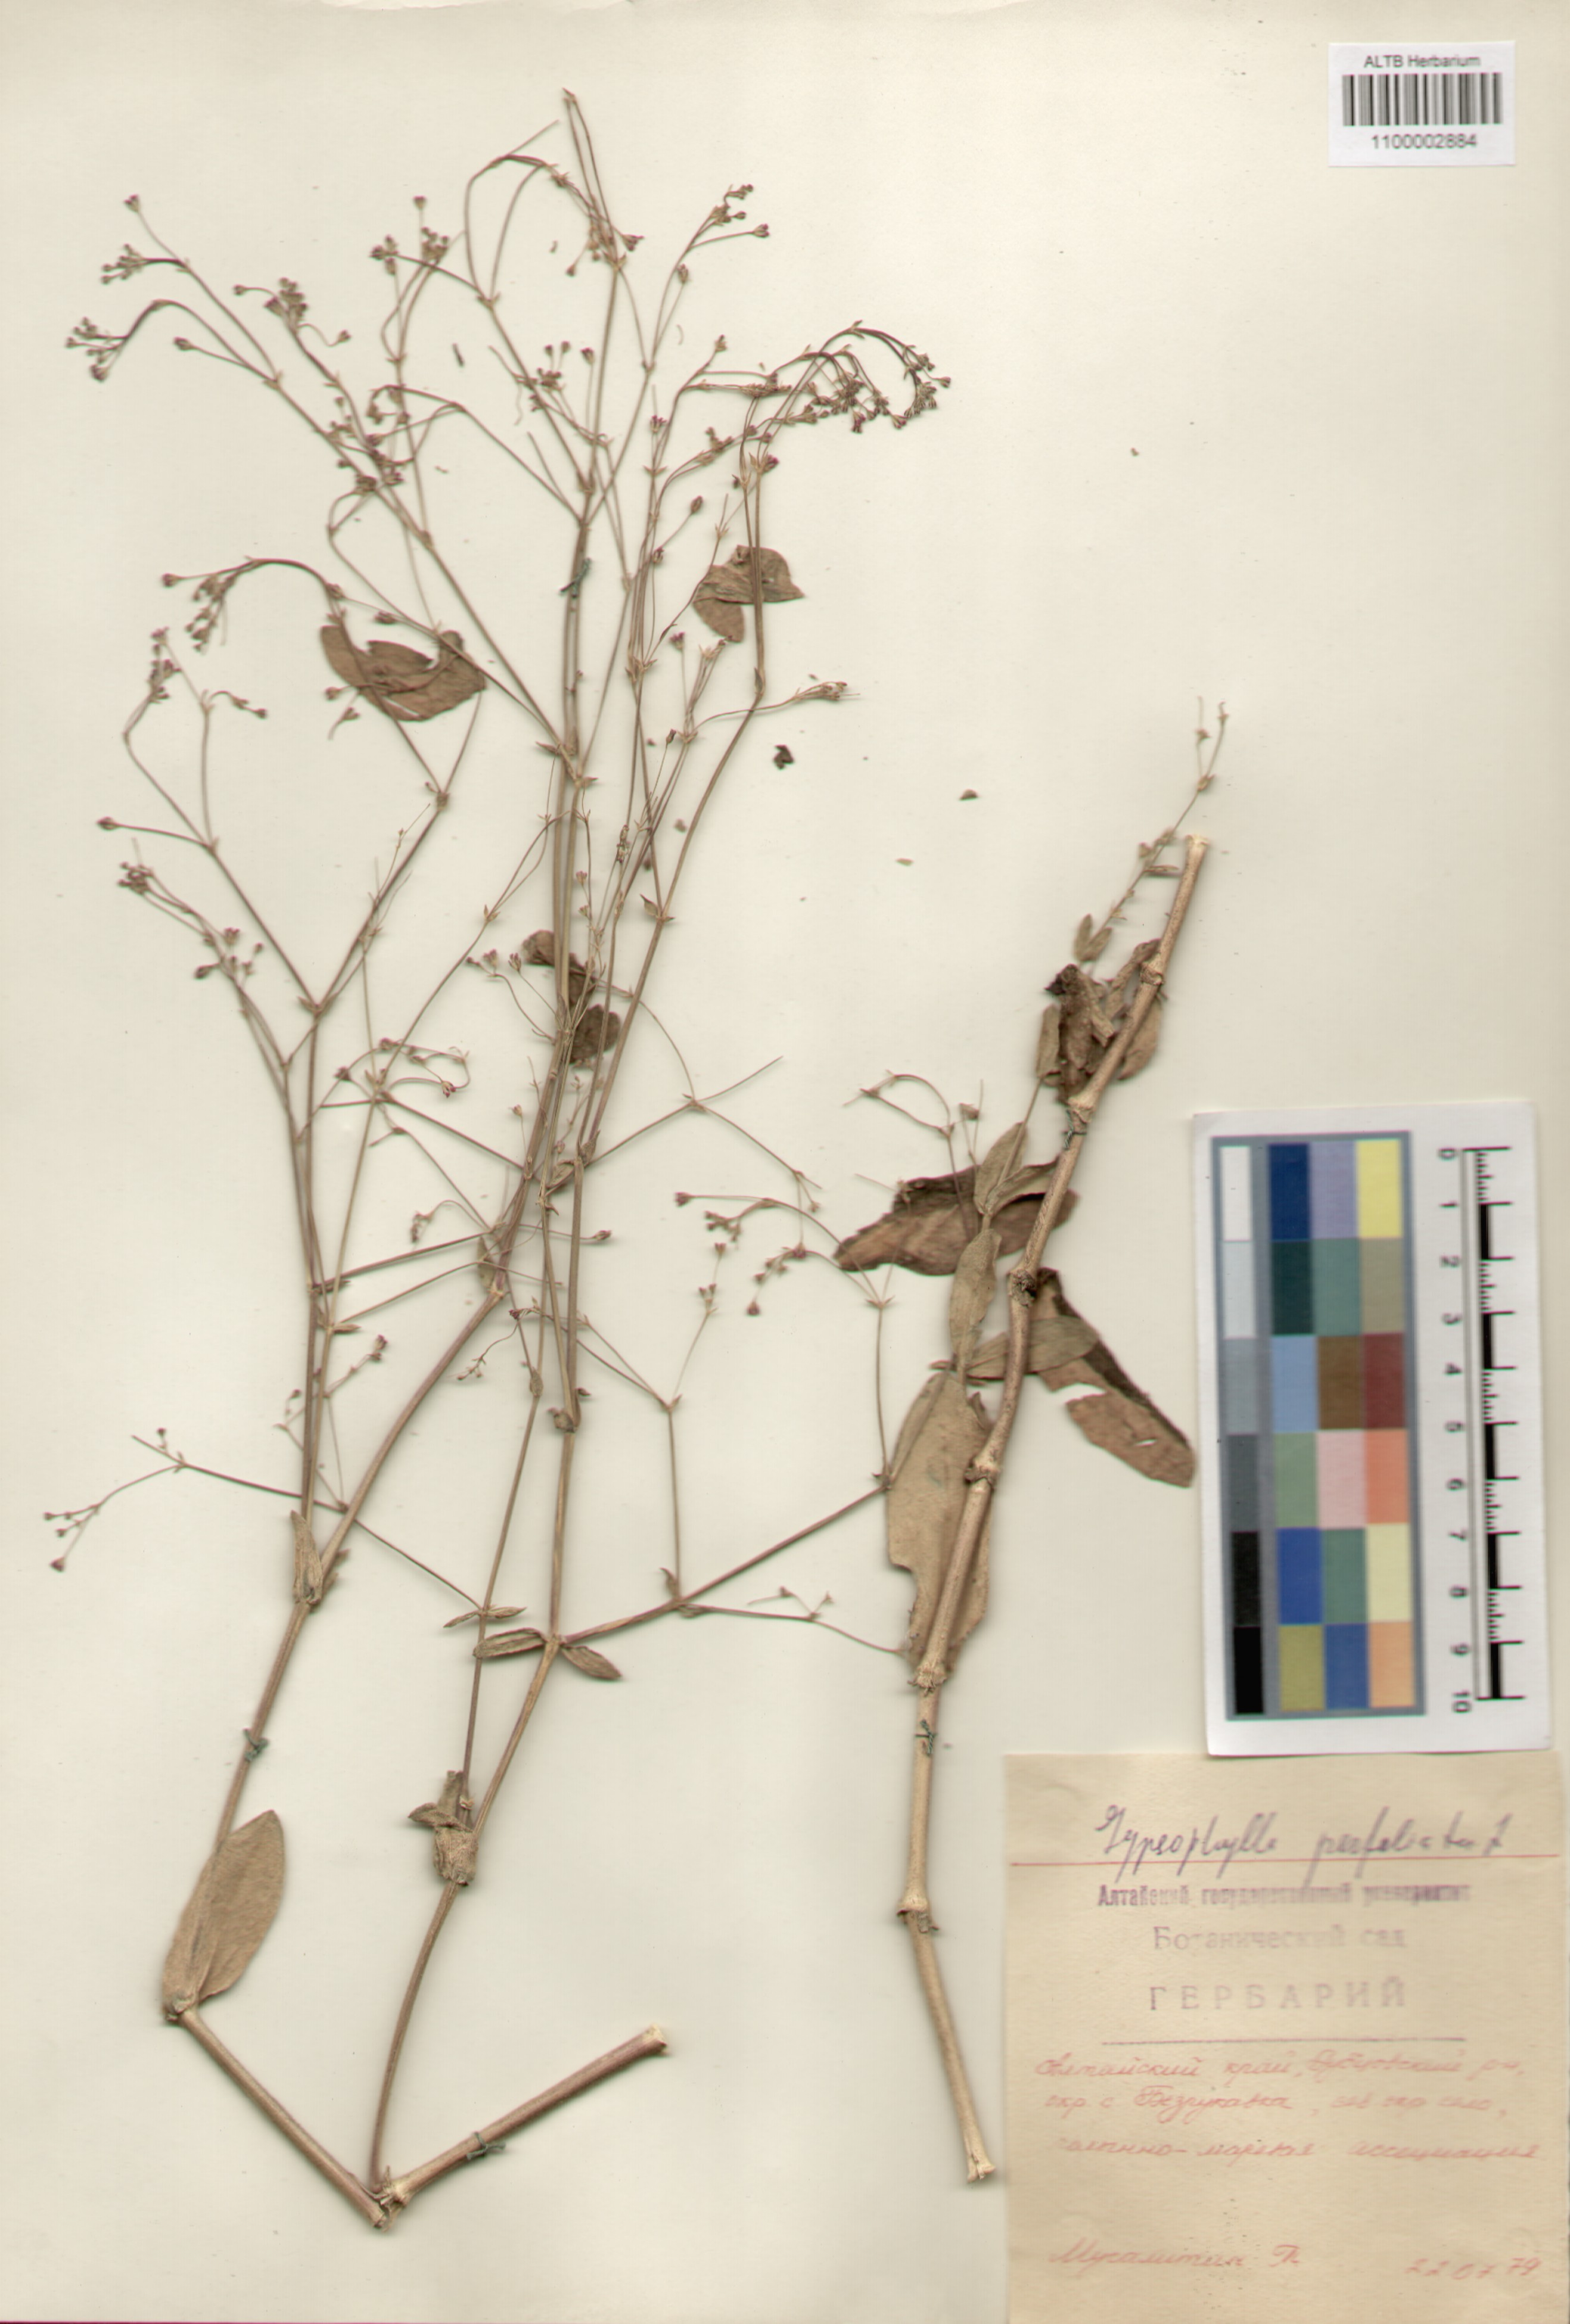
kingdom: Plantae
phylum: Tracheophyta
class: Magnoliopsida
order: Caryophyllales
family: Caryophyllaceae
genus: Gypsophila
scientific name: Gypsophila perfoliata
